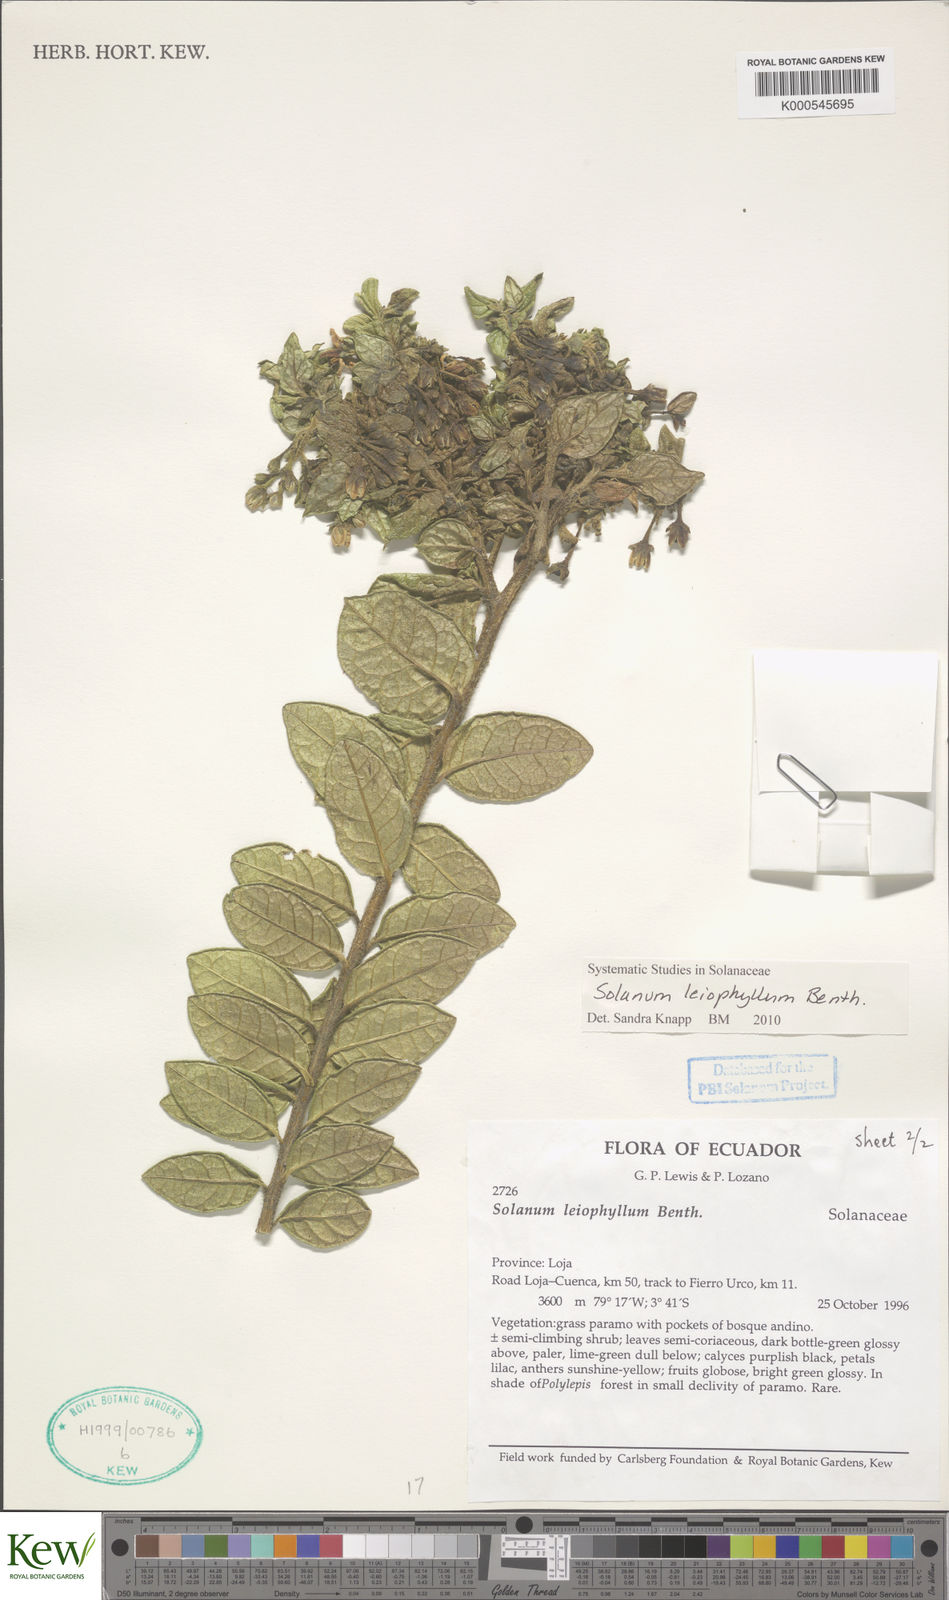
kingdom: Plantae
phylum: Tracheophyta
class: Magnoliopsida
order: Solanales
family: Solanaceae
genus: Solanum
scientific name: Solanum leiophyllum
